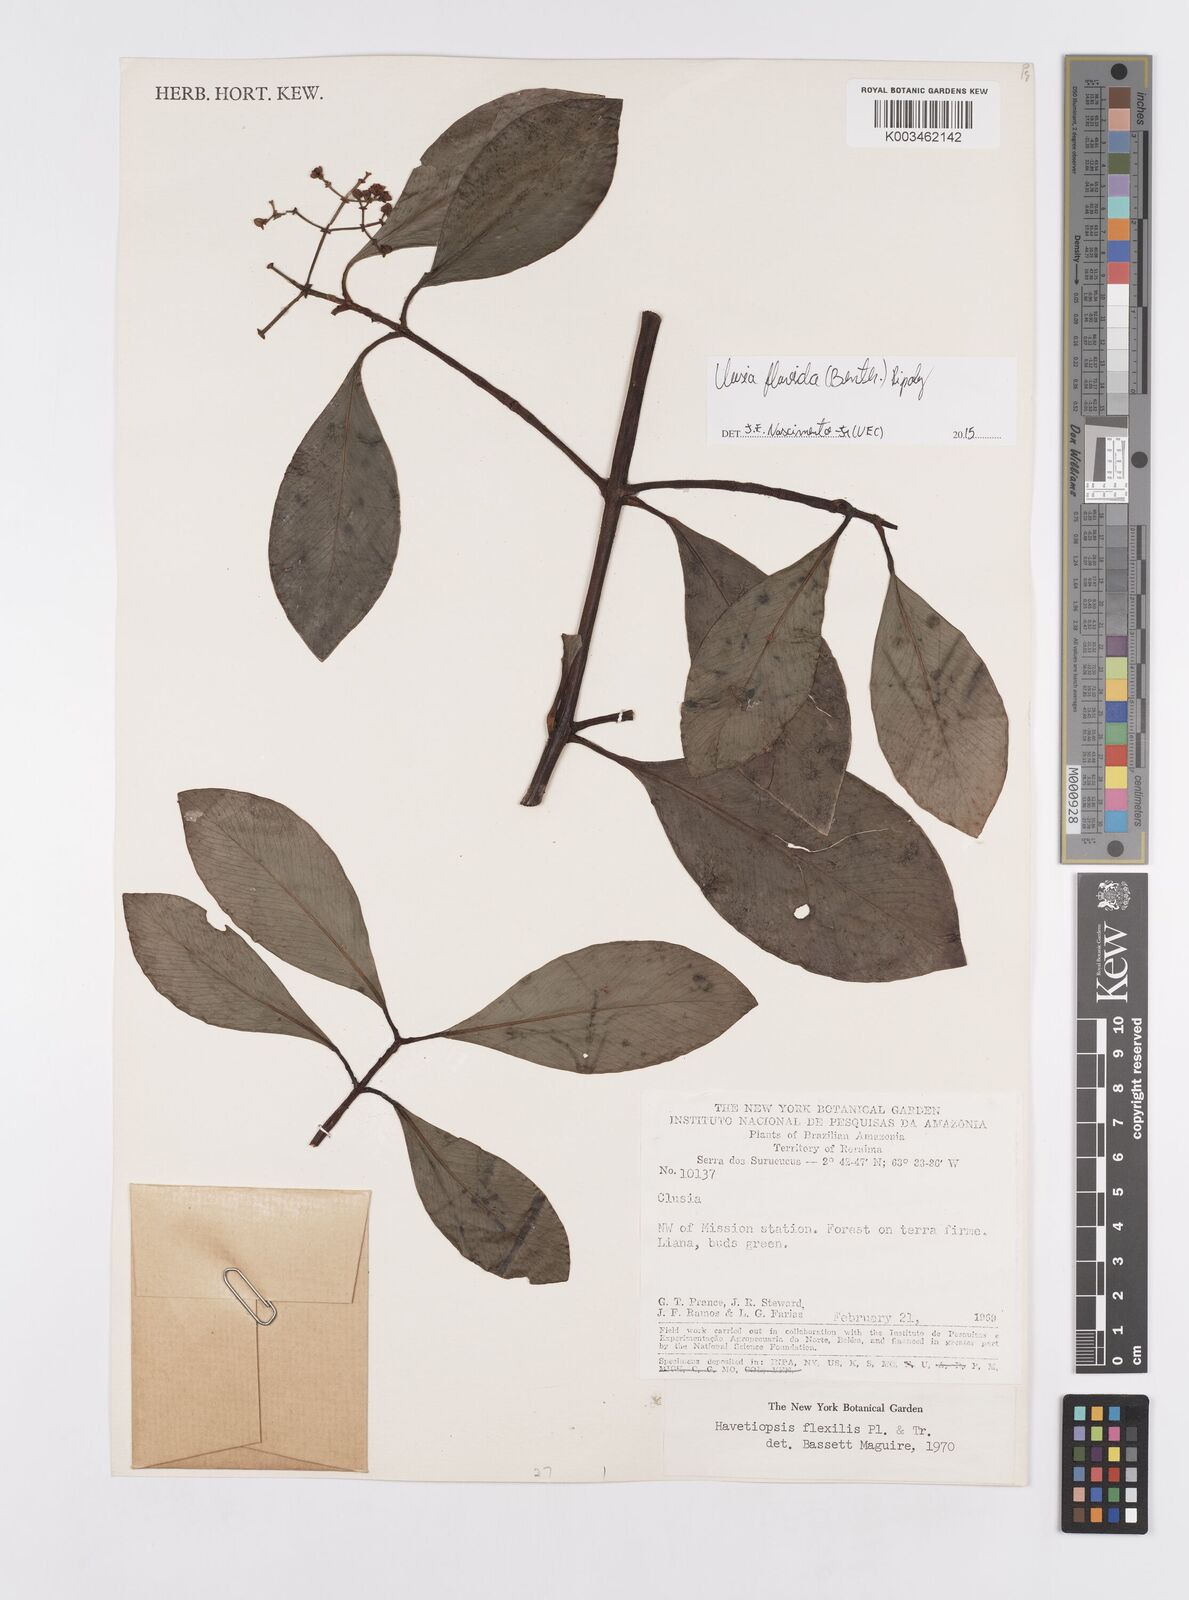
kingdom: Plantae
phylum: Tracheophyta
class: Magnoliopsida
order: Malpighiales
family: Clusiaceae
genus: Clusia
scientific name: Clusia flavida
